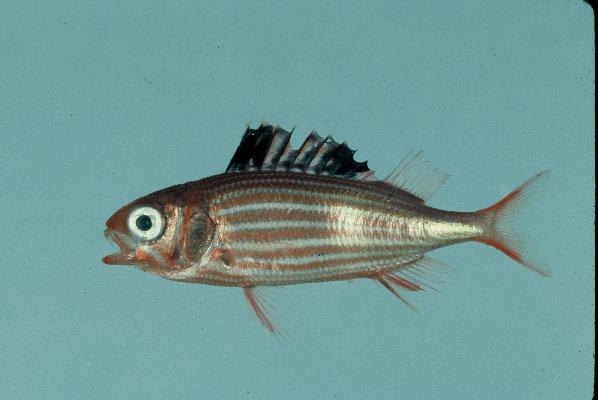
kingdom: Animalia
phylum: Chordata
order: Beryciformes
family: Holocentridae
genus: Sargocentron
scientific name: Sargocentron diadema
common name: Crown squirrelfish
